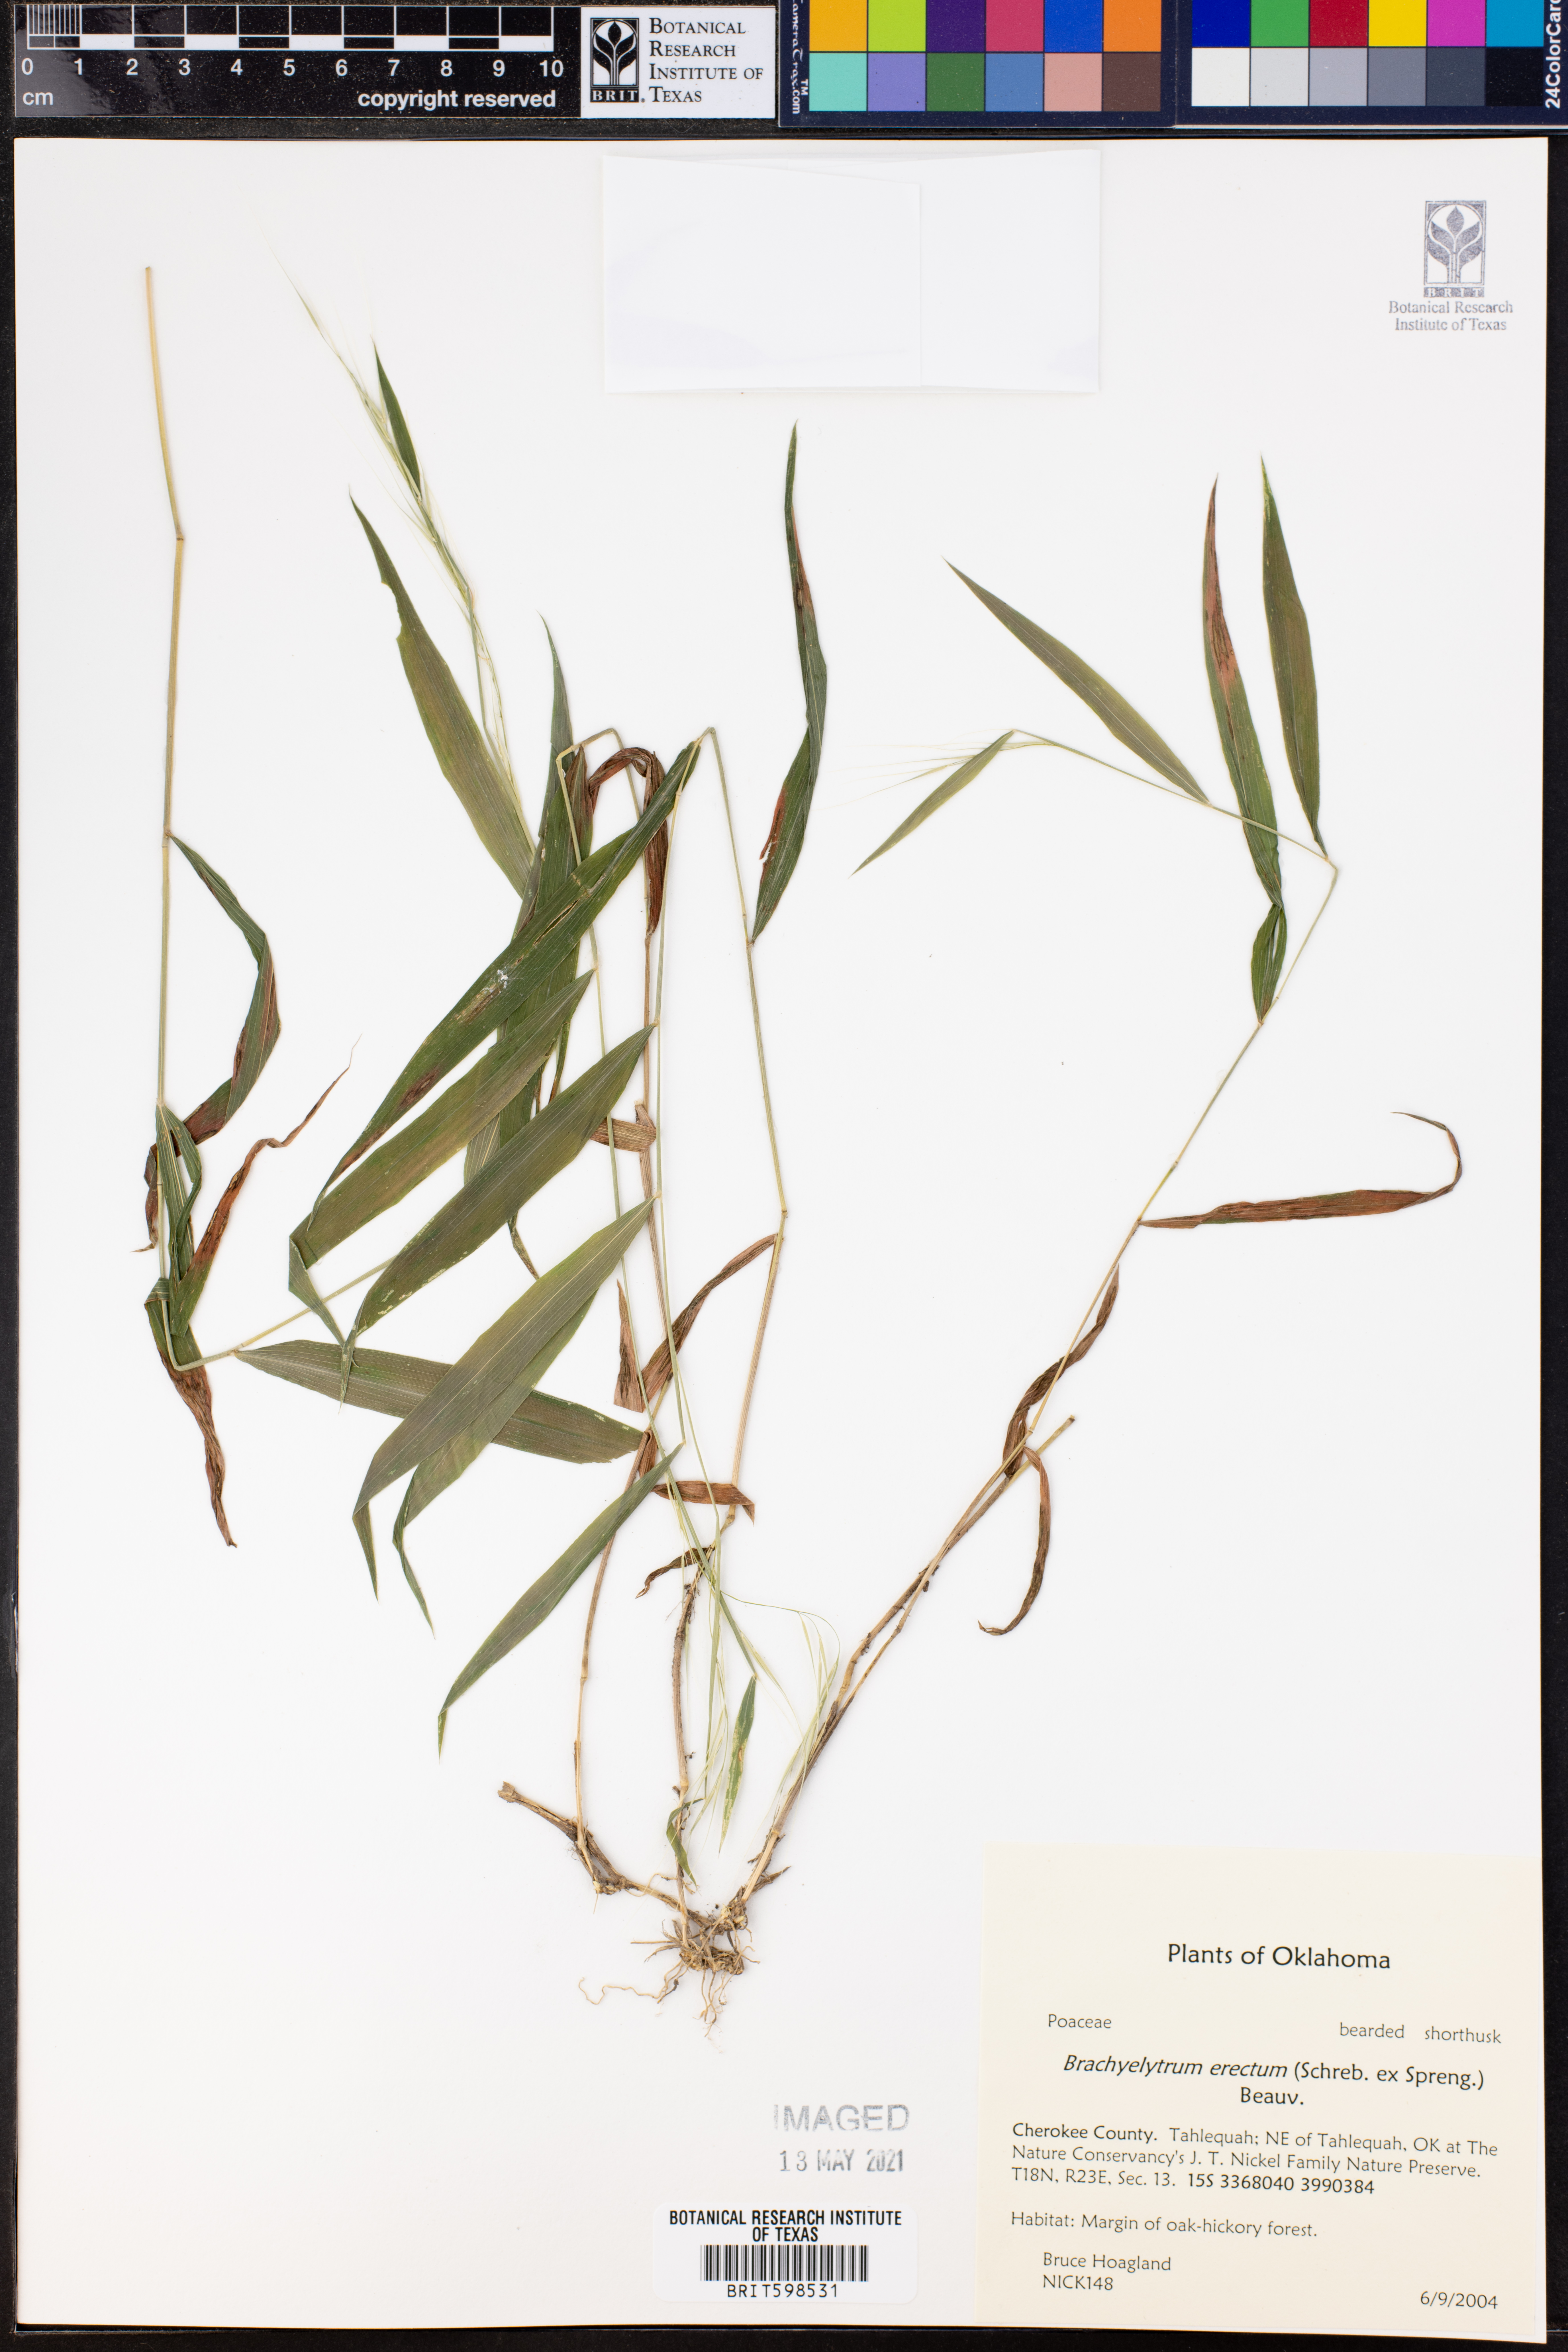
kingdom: Plantae
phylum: Tracheophyta
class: Liliopsida
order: Poales
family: Poaceae
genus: Brachyelytrum
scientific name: Brachyelytrum erectum
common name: Bearded shorthusk
